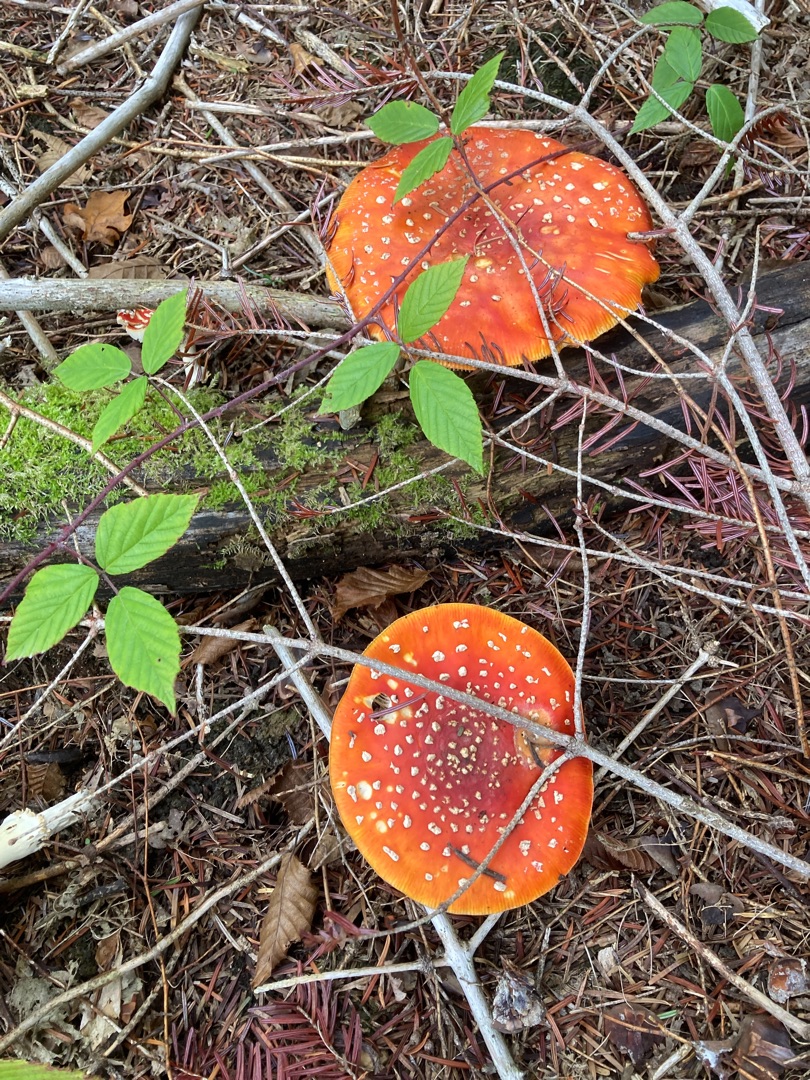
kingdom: Fungi
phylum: Basidiomycota
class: Agaricomycetes
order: Agaricales
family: Amanitaceae
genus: Amanita
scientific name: Amanita muscaria
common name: Rød fluesvamp
